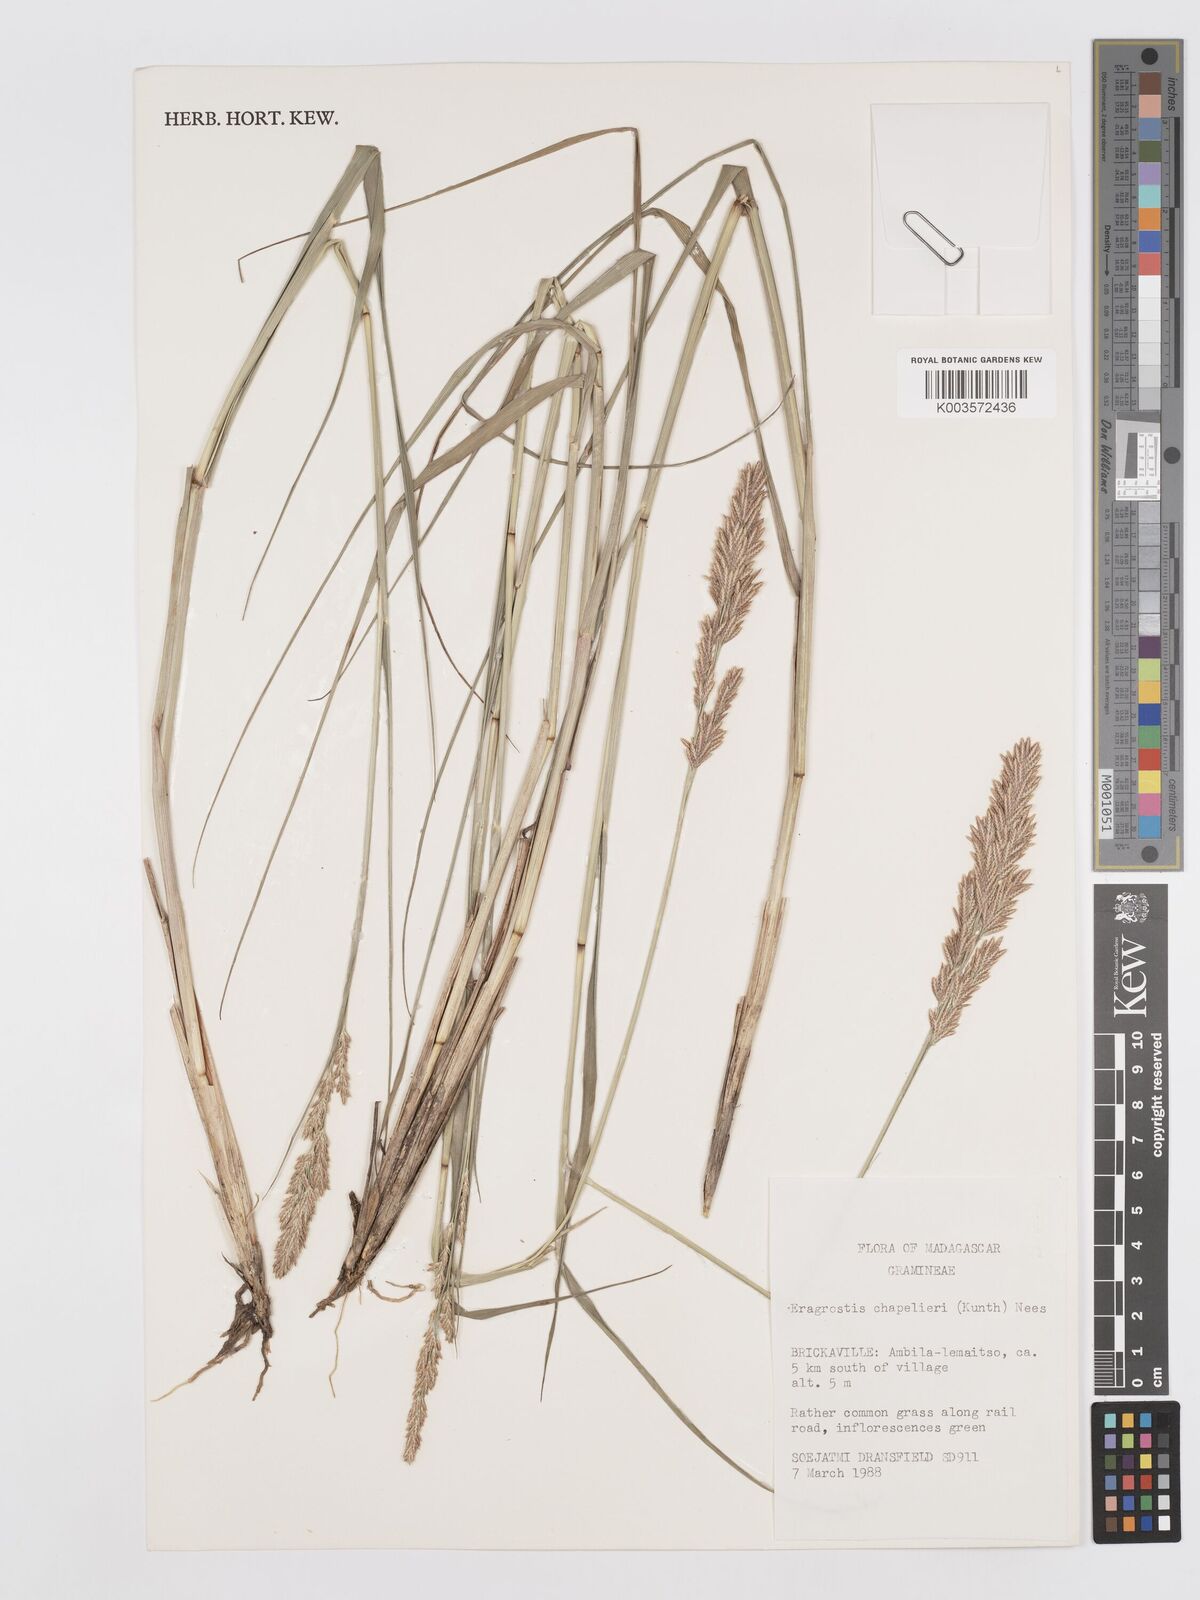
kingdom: Plantae
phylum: Tracheophyta
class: Liliopsida
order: Poales
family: Poaceae
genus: Eragrostis
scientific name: Eragrostis chapelieri
